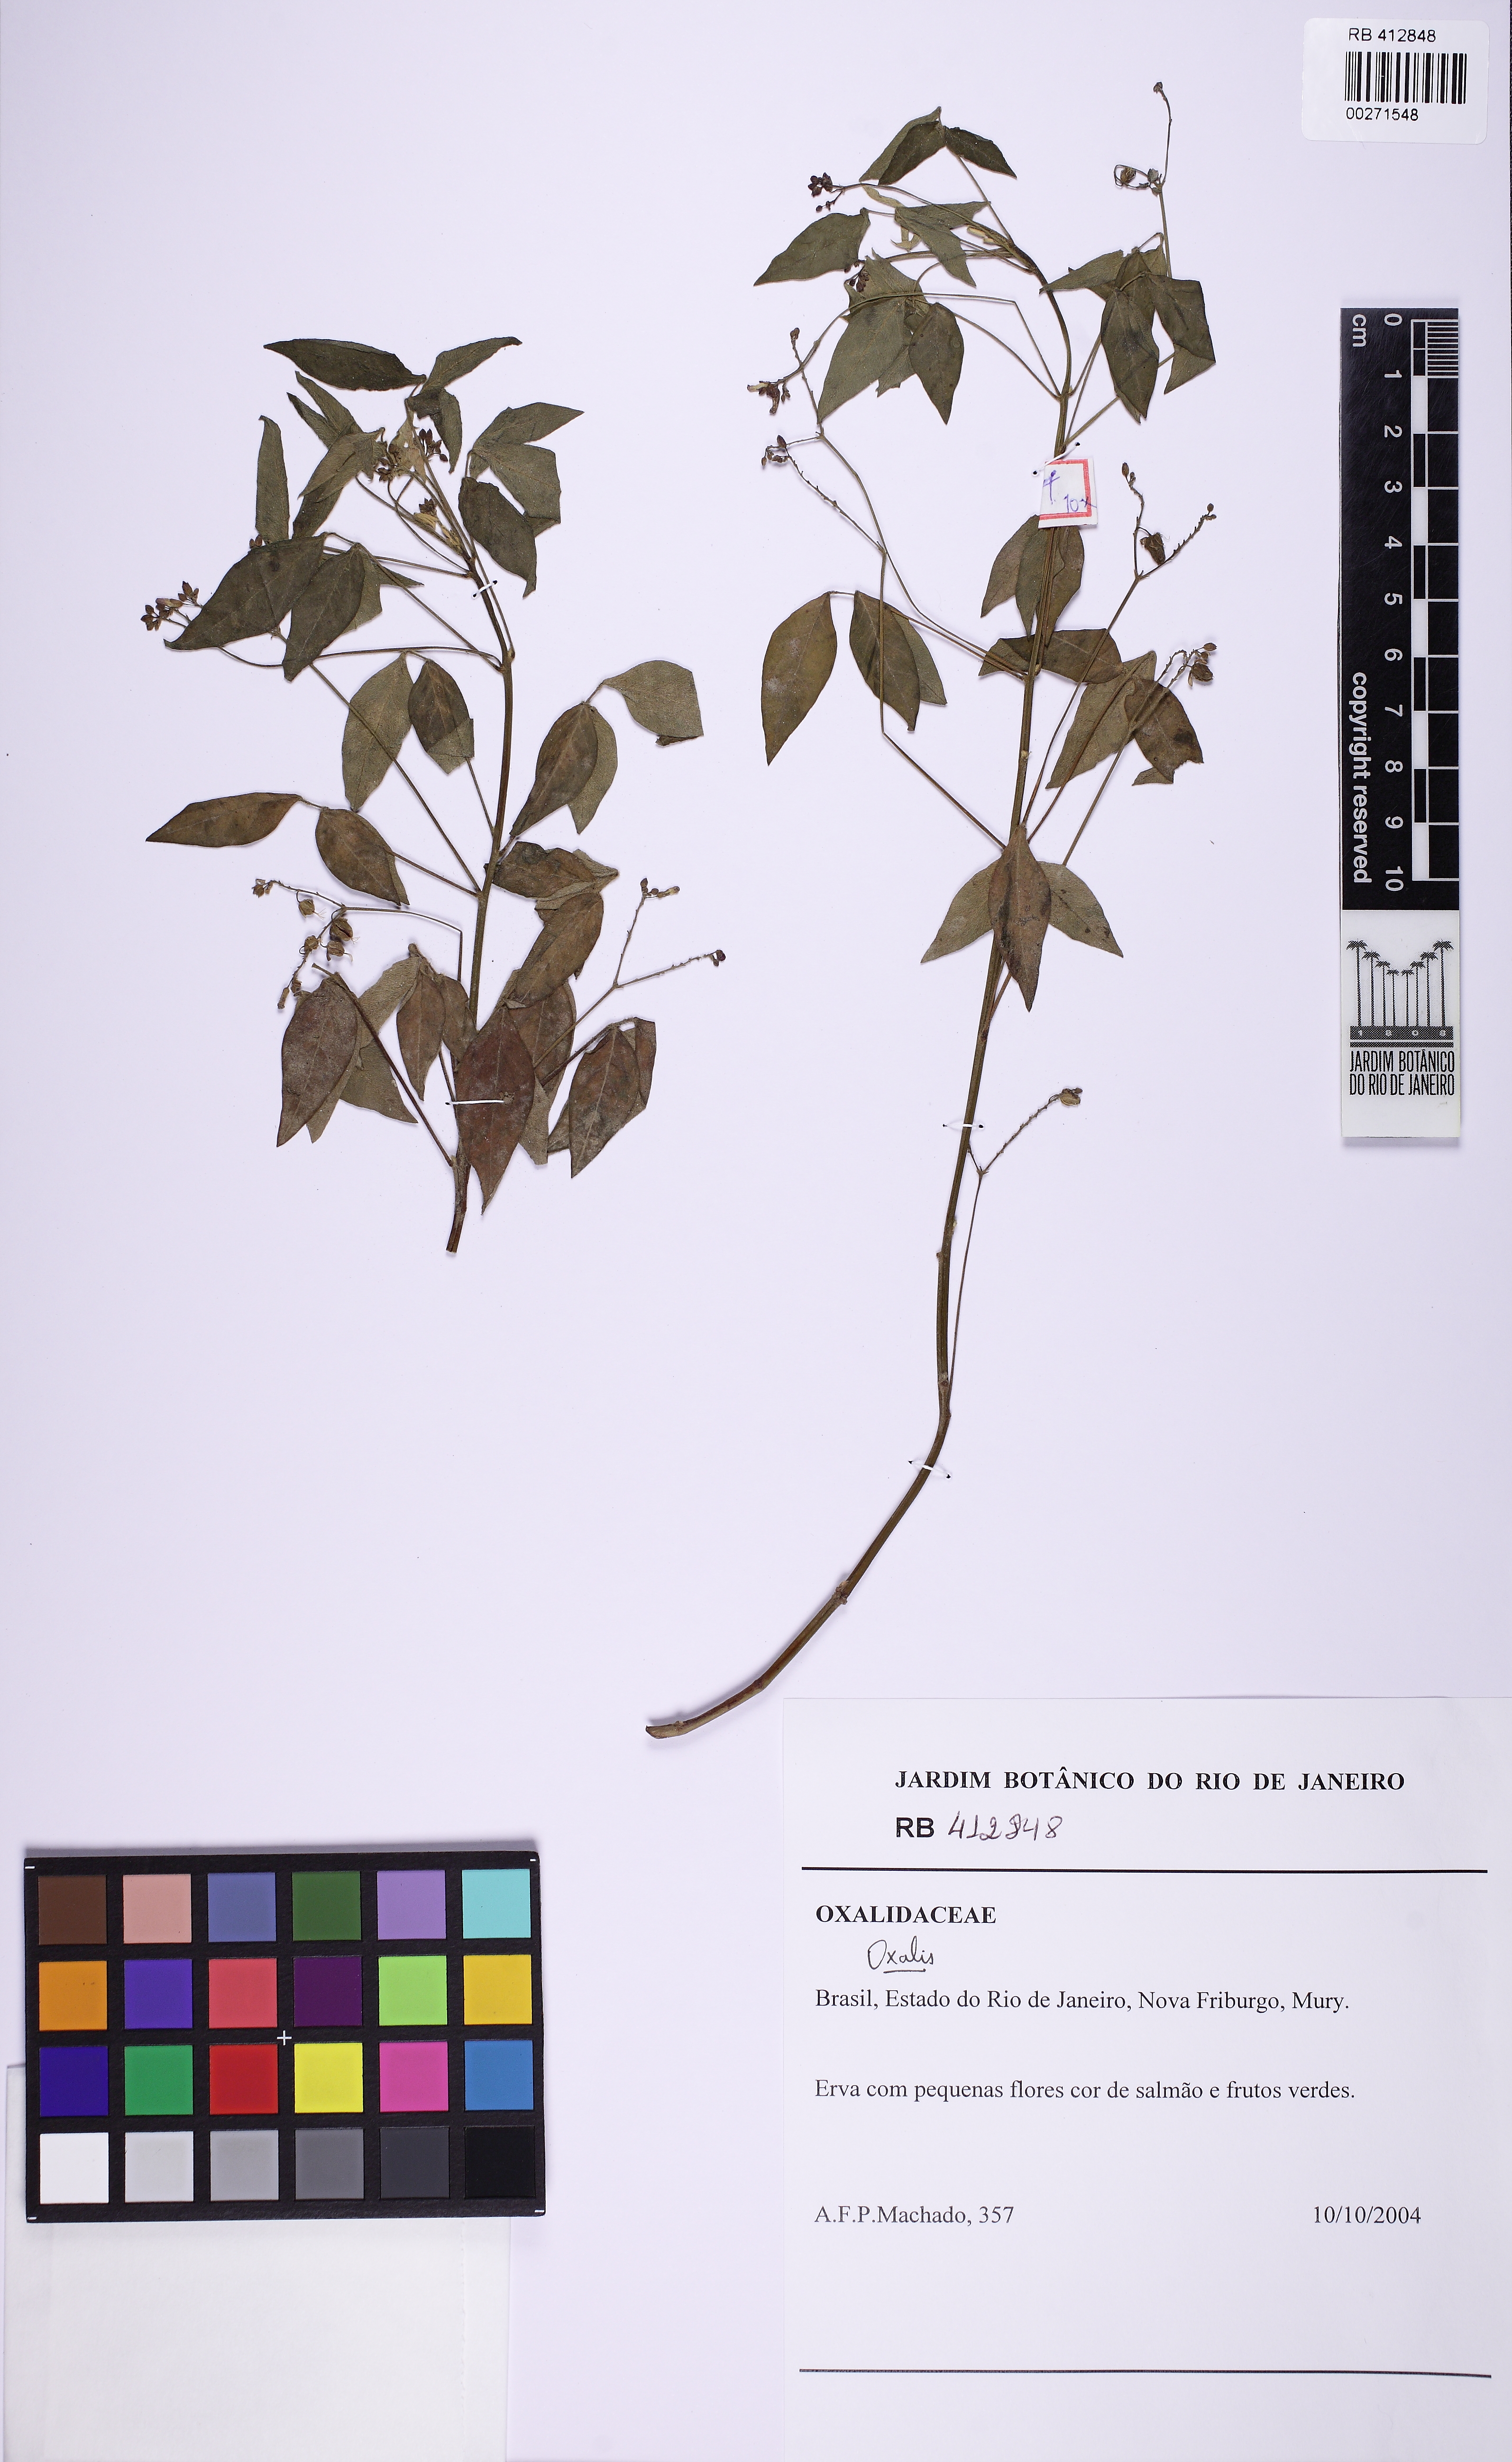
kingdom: Plantae
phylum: Tracheophyta
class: Magnoliopsida
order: Oxalidales
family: Oxalidaceae
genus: Oxalis
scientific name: Oxalis cytisoides
